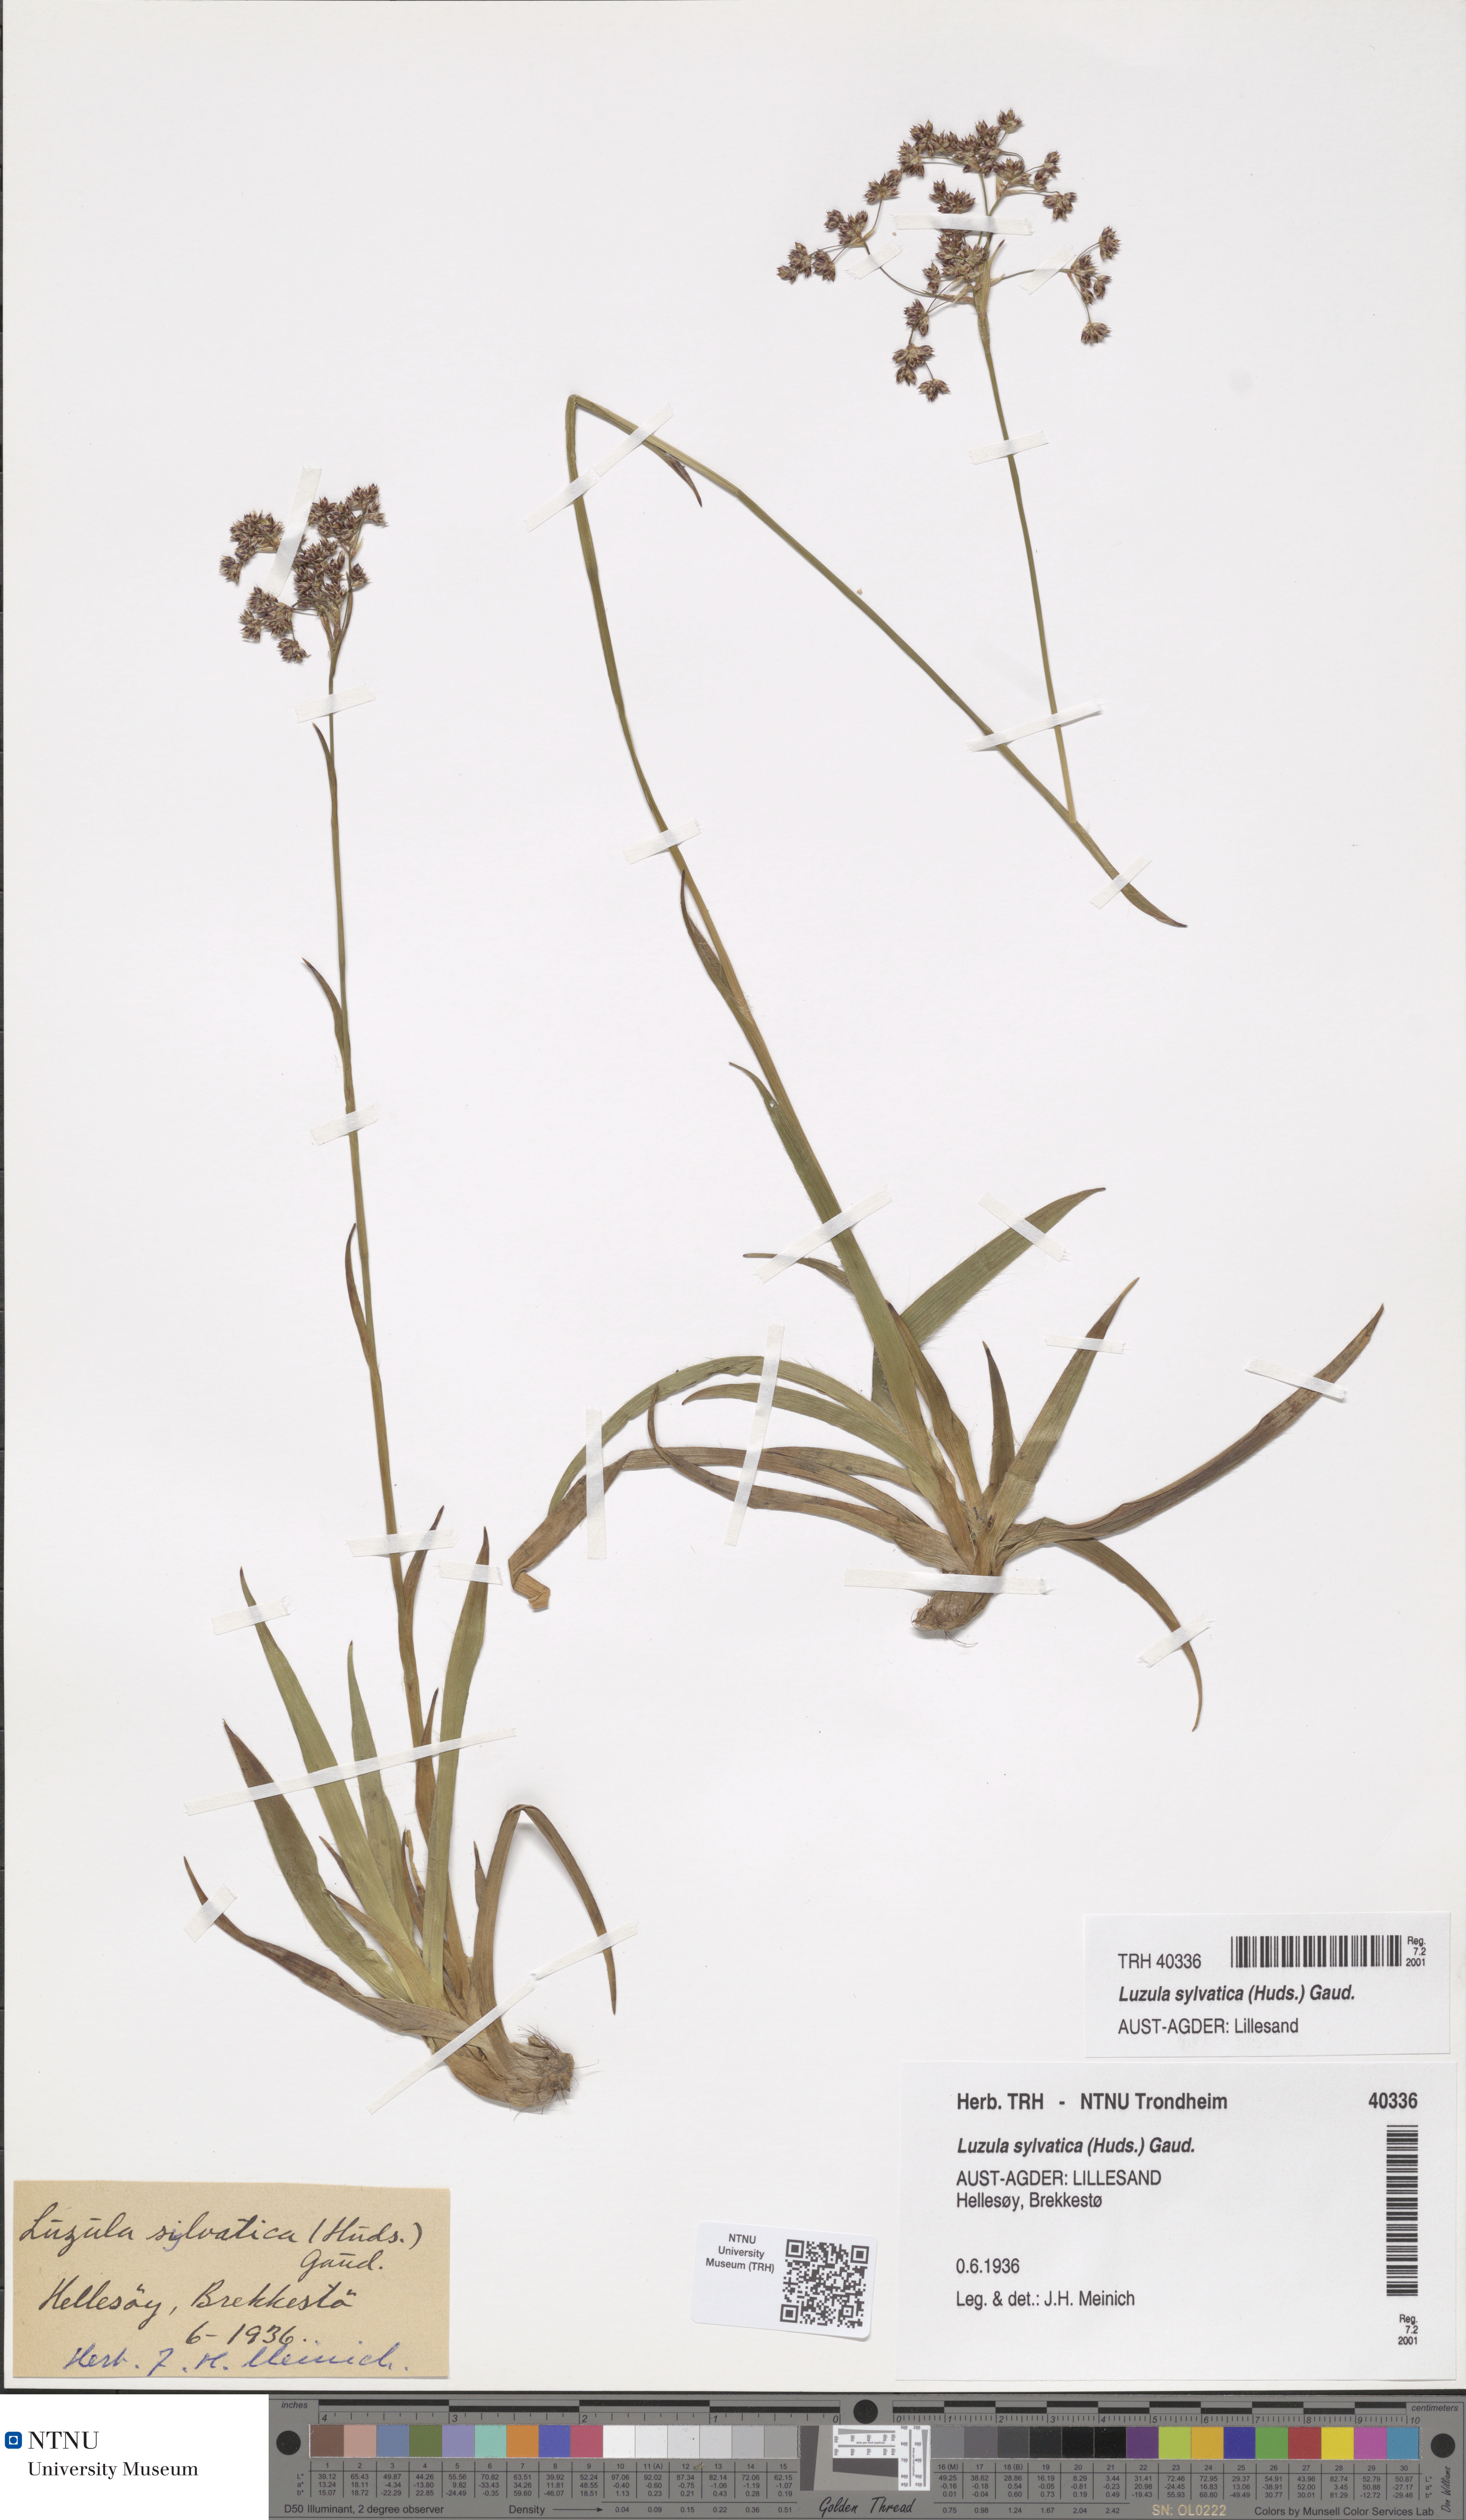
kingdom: Plantae
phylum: Tracheophyta
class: Liliopsida
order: Poales
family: Juncaceae
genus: Luzula
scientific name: Luzula sylvatica
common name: Great wood-rush
